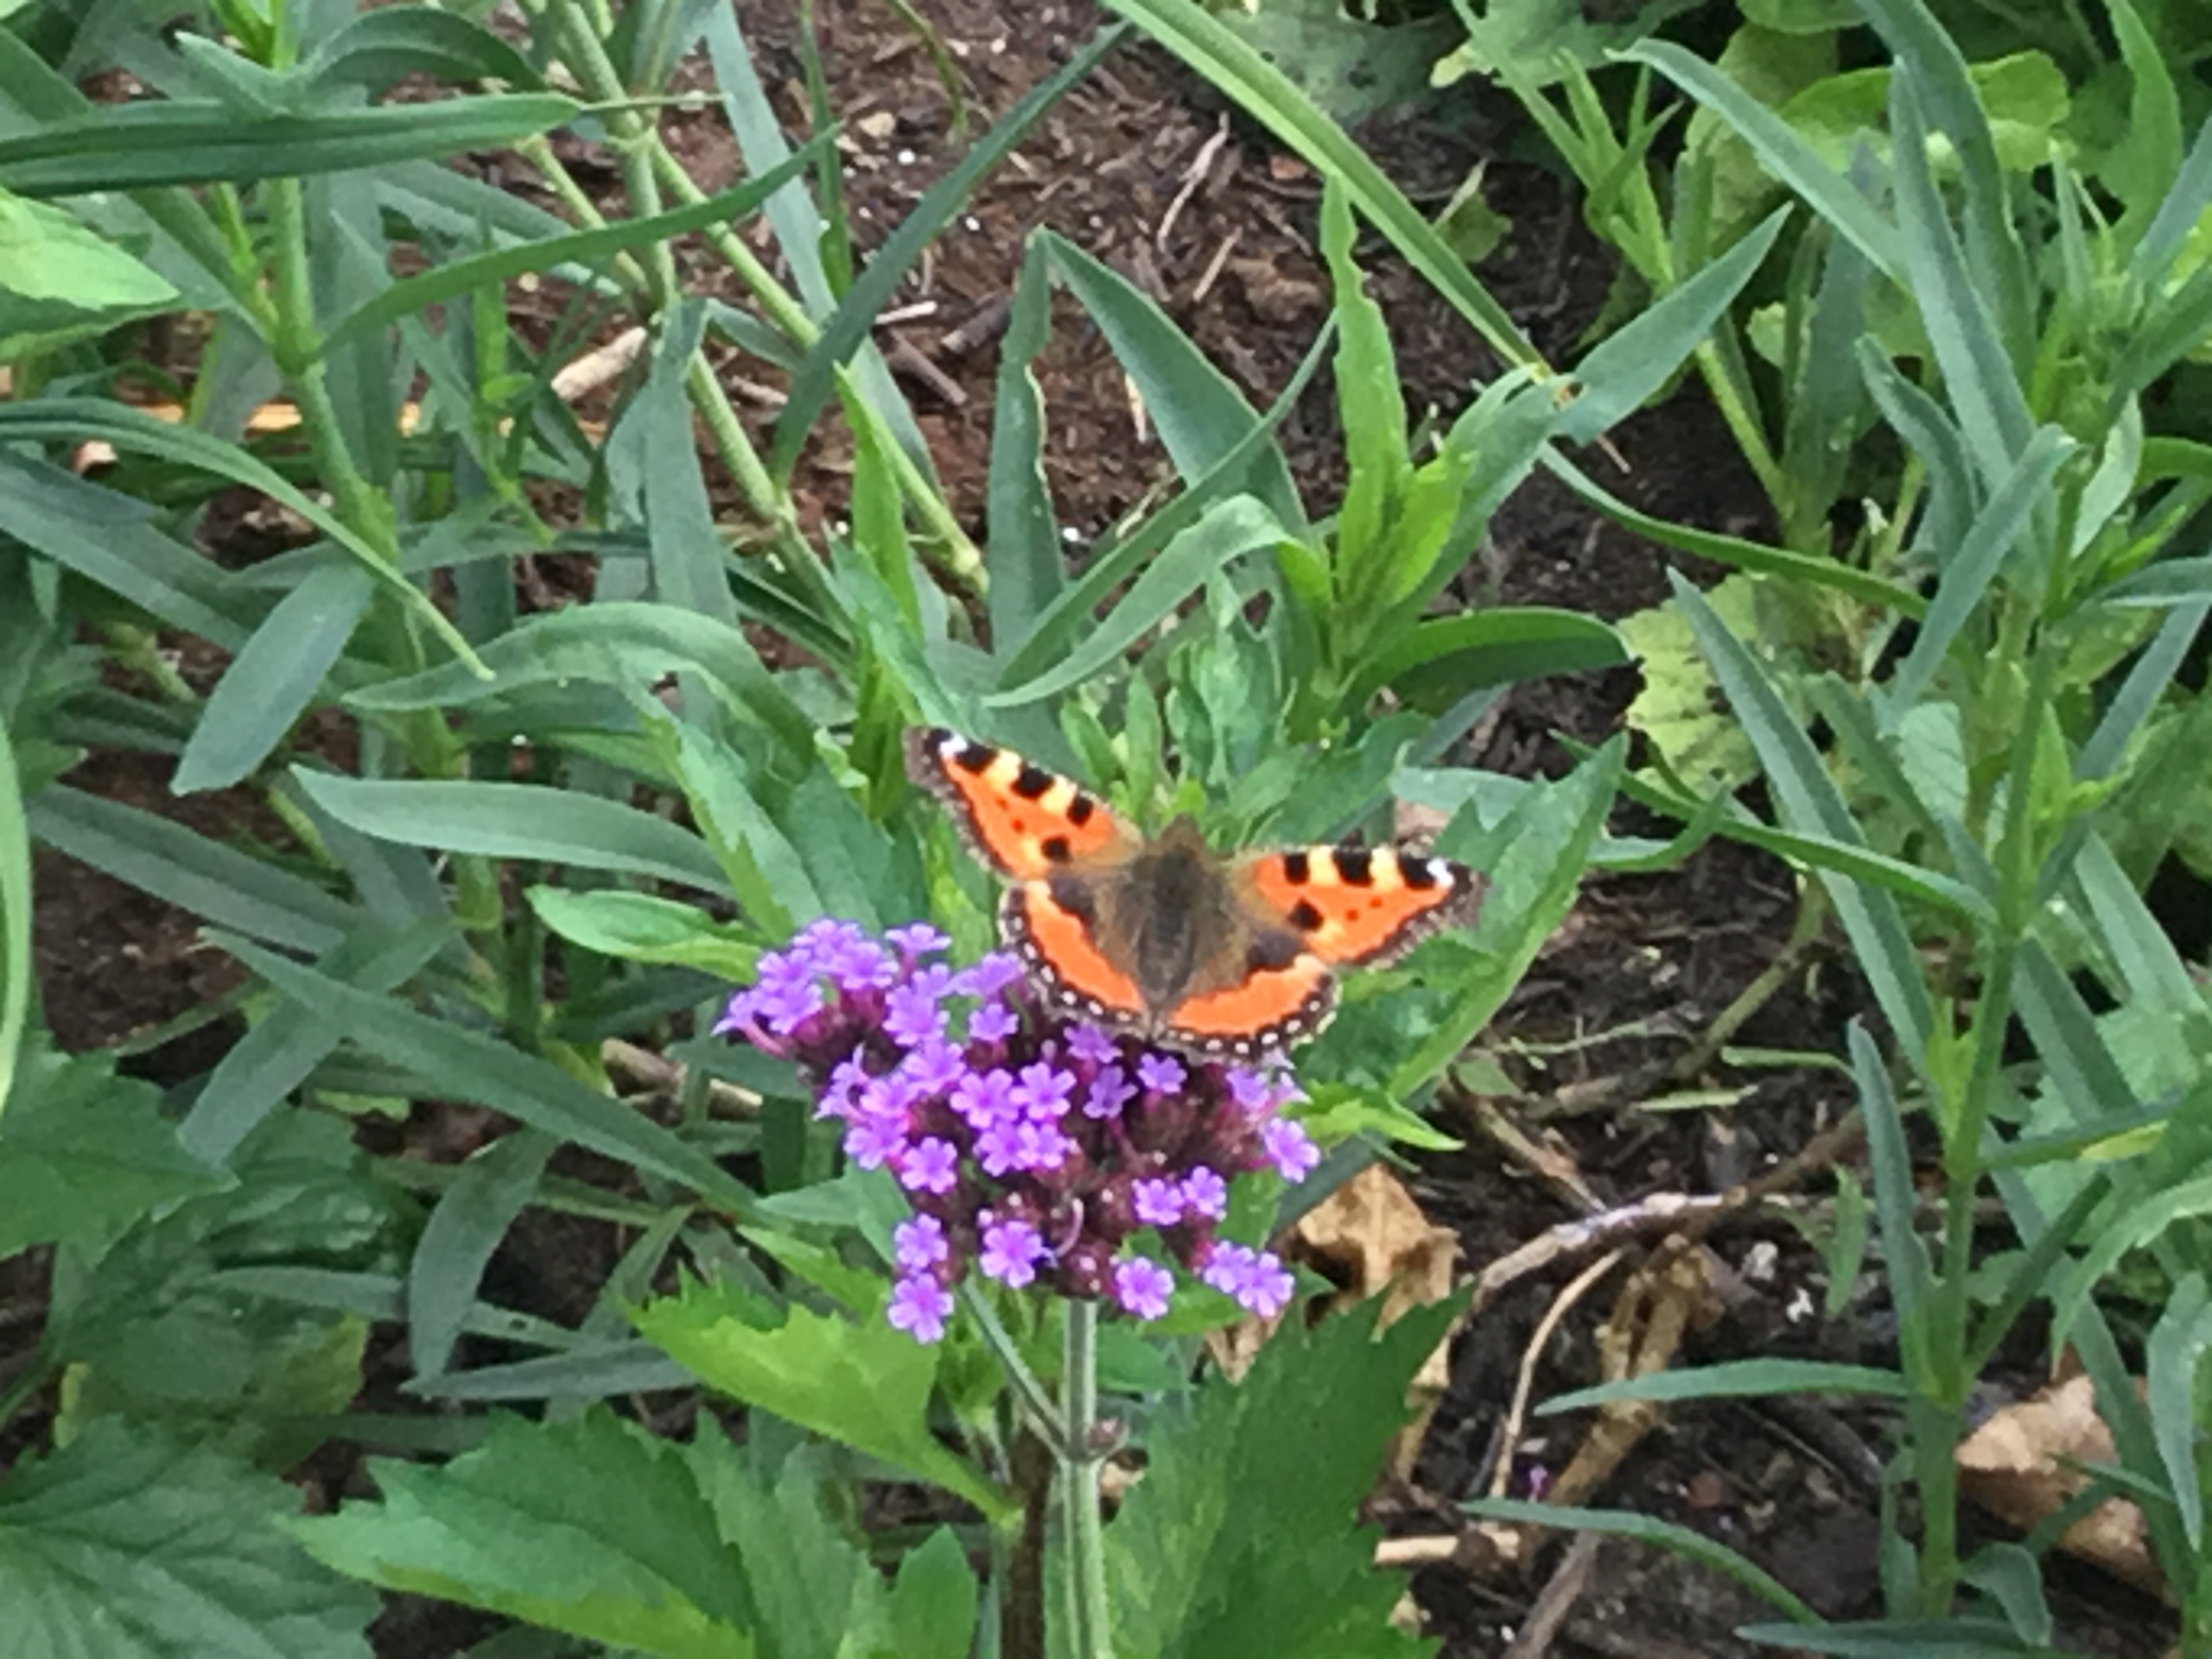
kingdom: Animalia
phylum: Arthropoda
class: Insecta
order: Lepidoptera
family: Nymphalidae
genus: Aglais
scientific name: Aglais urticae
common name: Nældens takvinge
